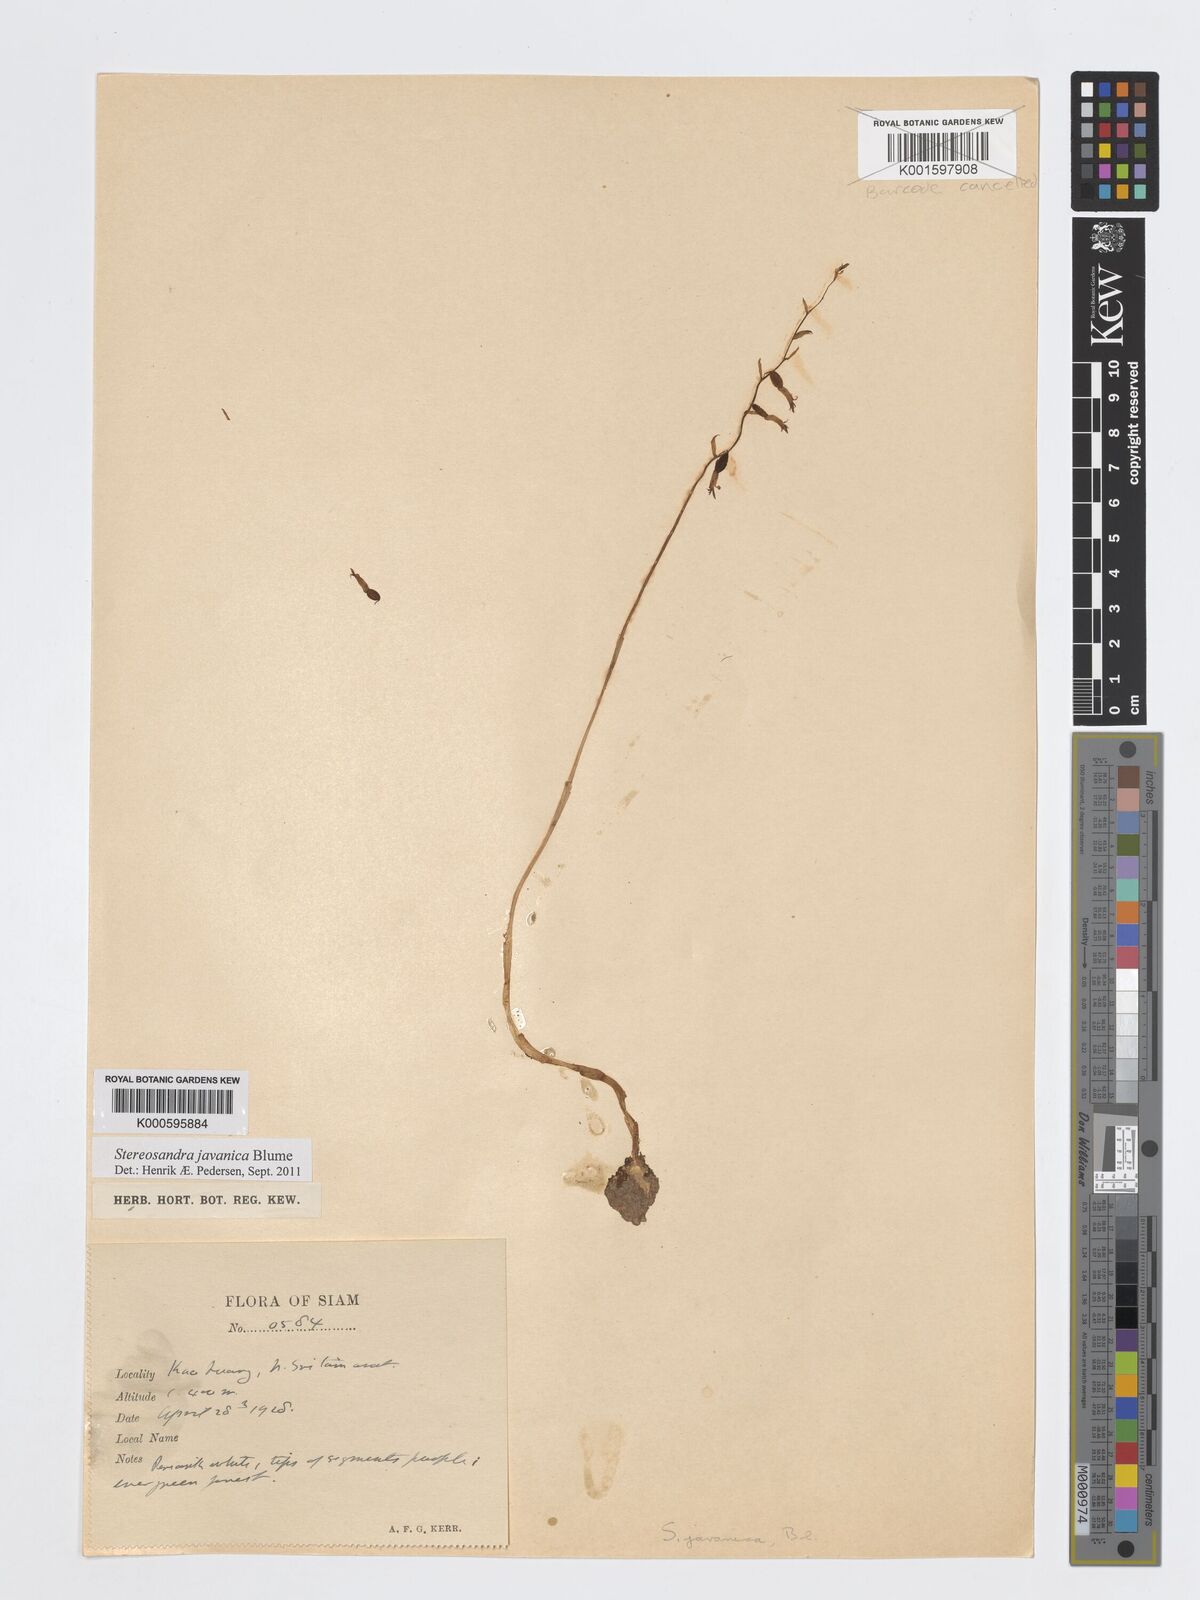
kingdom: Plantae
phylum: Tracheophyta
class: Liliopsida
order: Asparagales
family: Orchidaceae
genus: Stereosandra
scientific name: Stereosandra javanica
